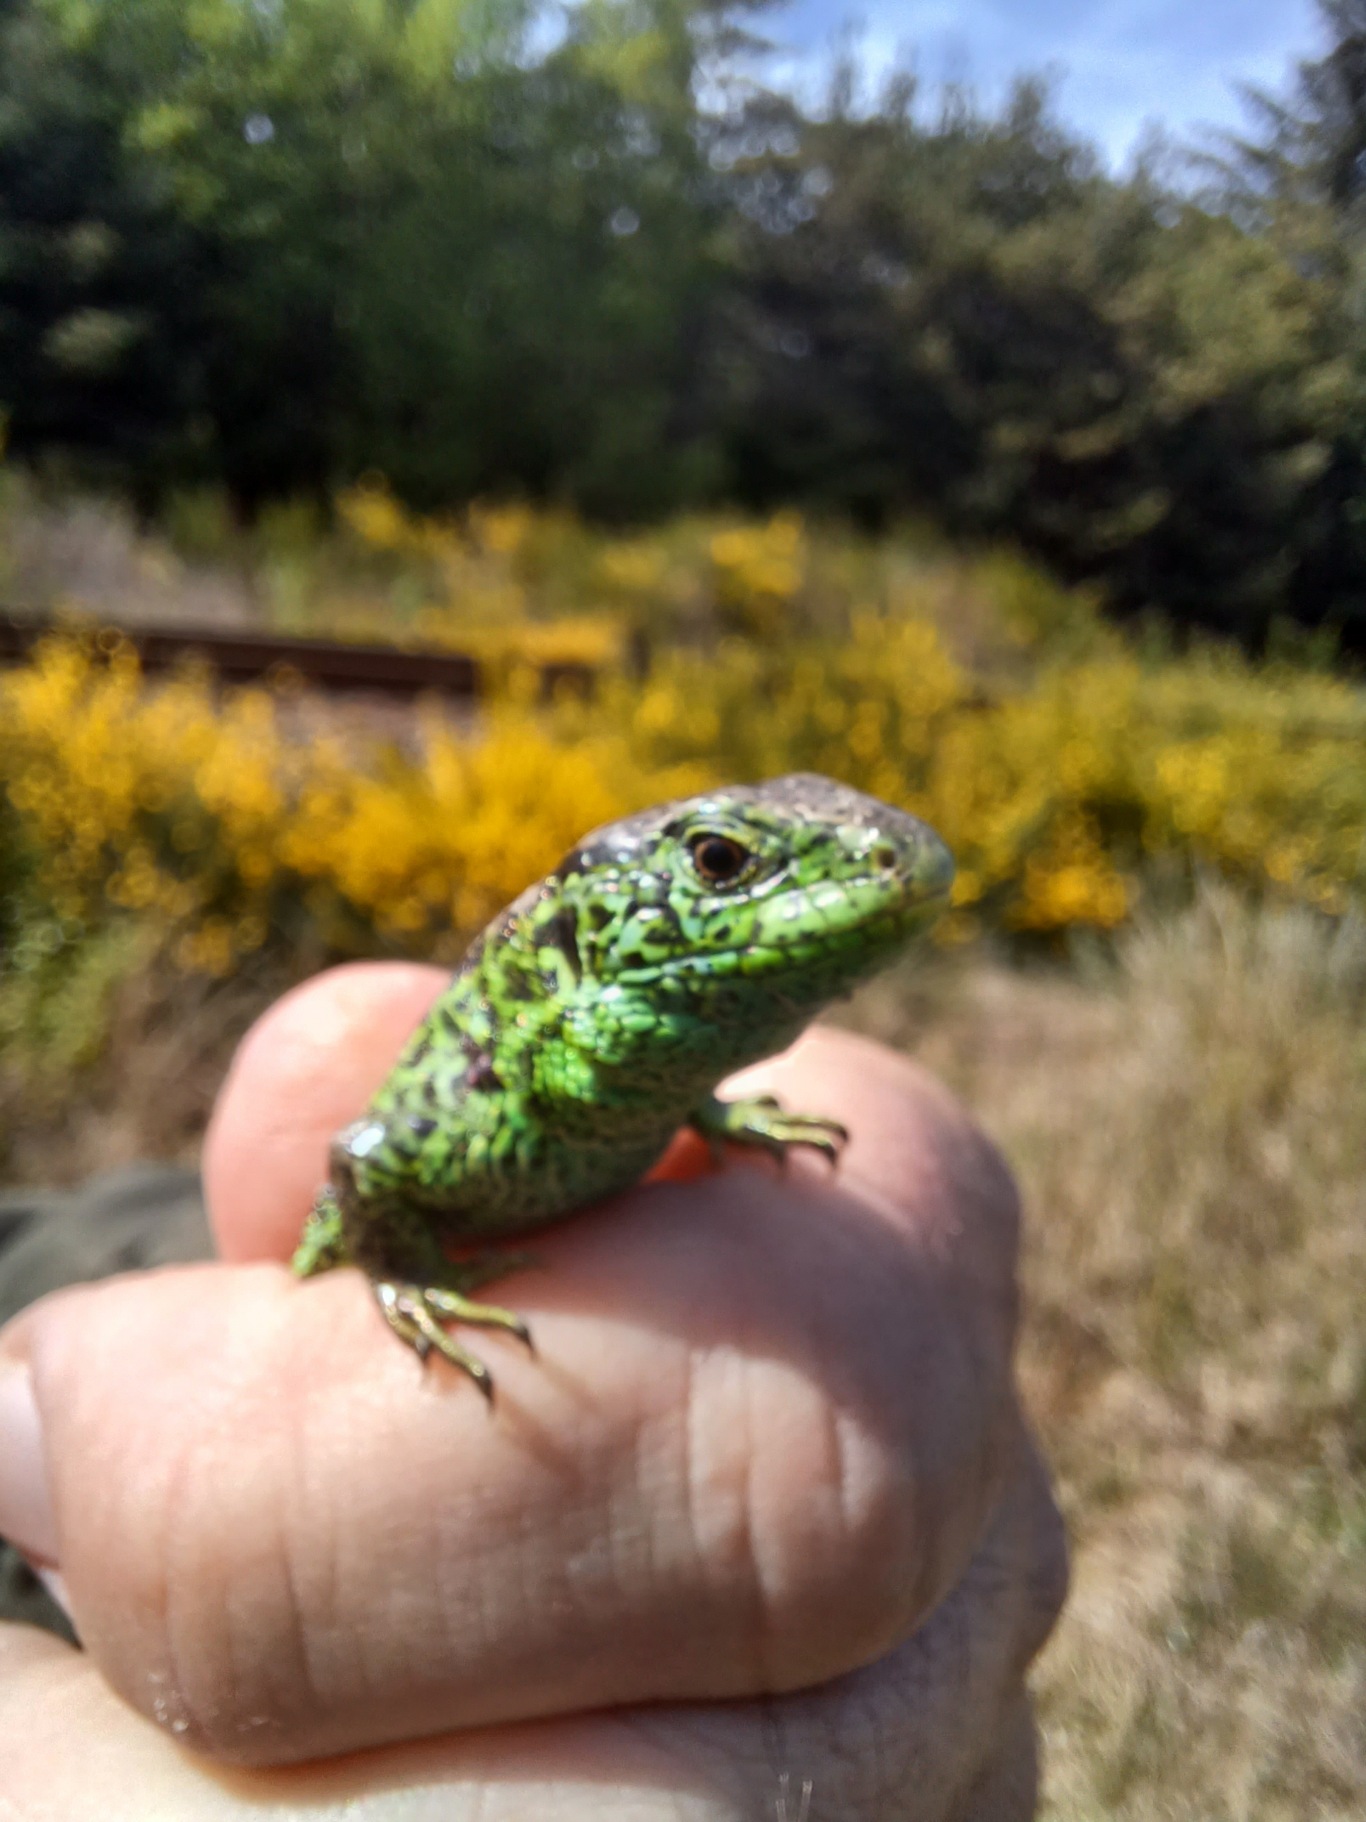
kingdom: Animalia
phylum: Chordata
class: Squamata
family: Lacertidae
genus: Lacerta
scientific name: Lacerta agilis
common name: Markfirben
